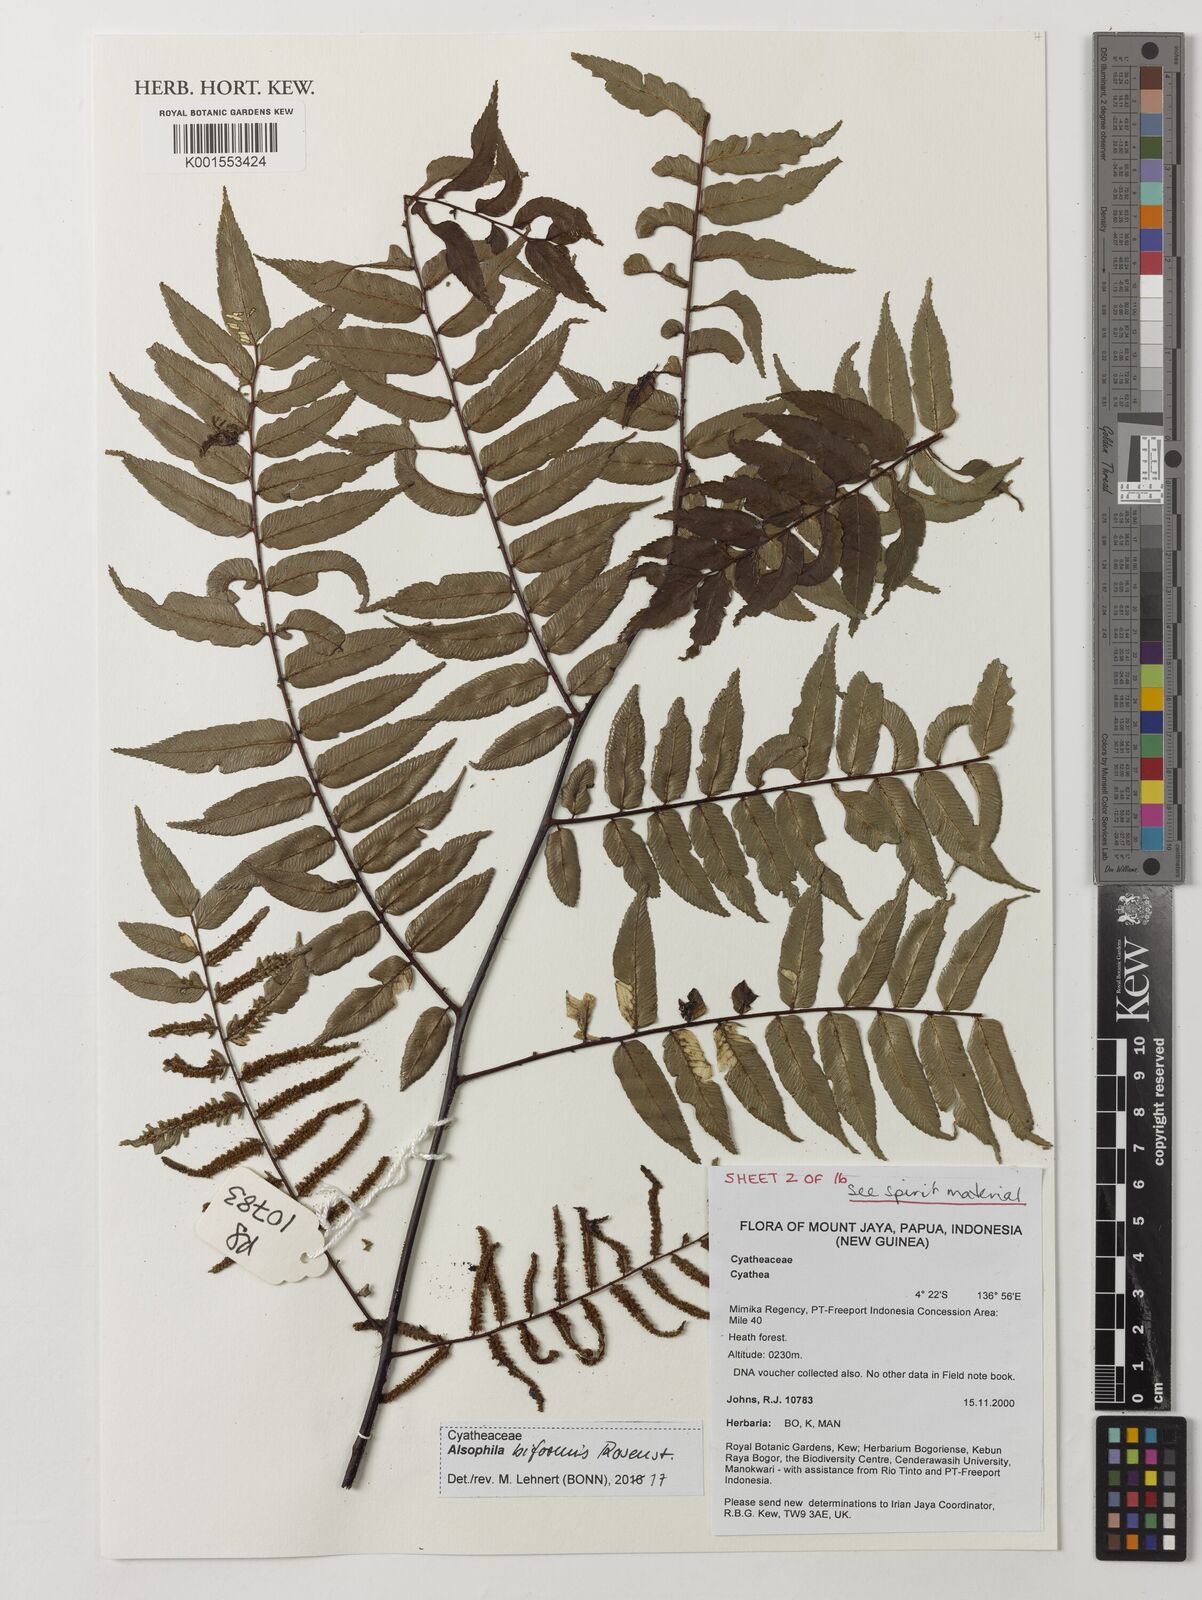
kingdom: Plantae
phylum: Tracheophyta
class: Polypodiopsida
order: Cyatheales
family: Cyatheaceae
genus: Gymnosphaera
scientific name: Gymnosphaera biformis
